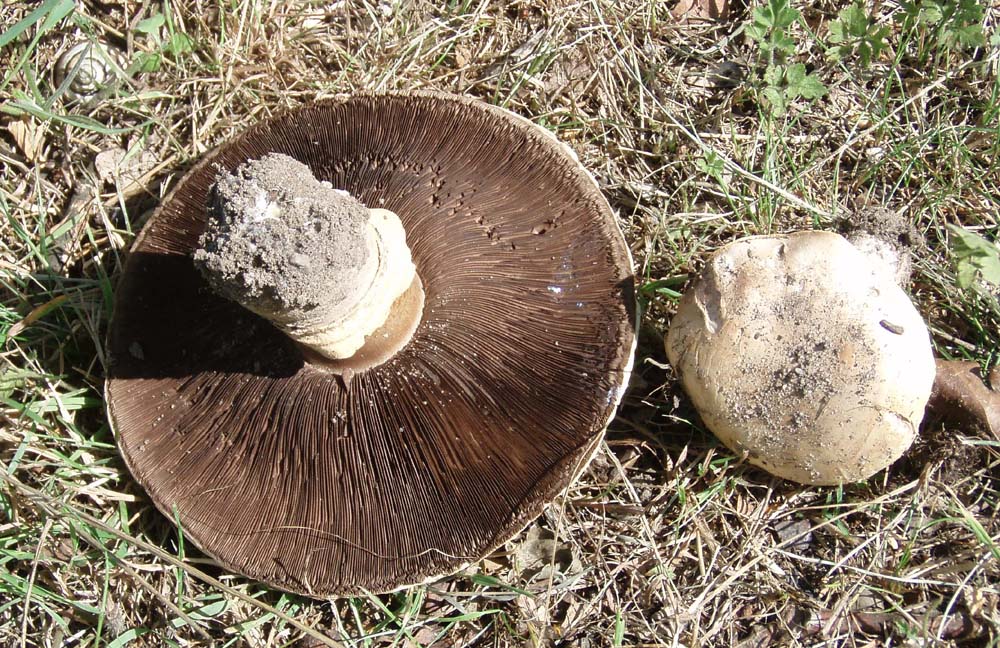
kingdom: Fungi
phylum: Basidiomycota
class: Agaricomycetes
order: Agaricales
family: Agaricaceae
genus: Agaricus
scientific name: Agaricus bitorquis
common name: vej-champignon
